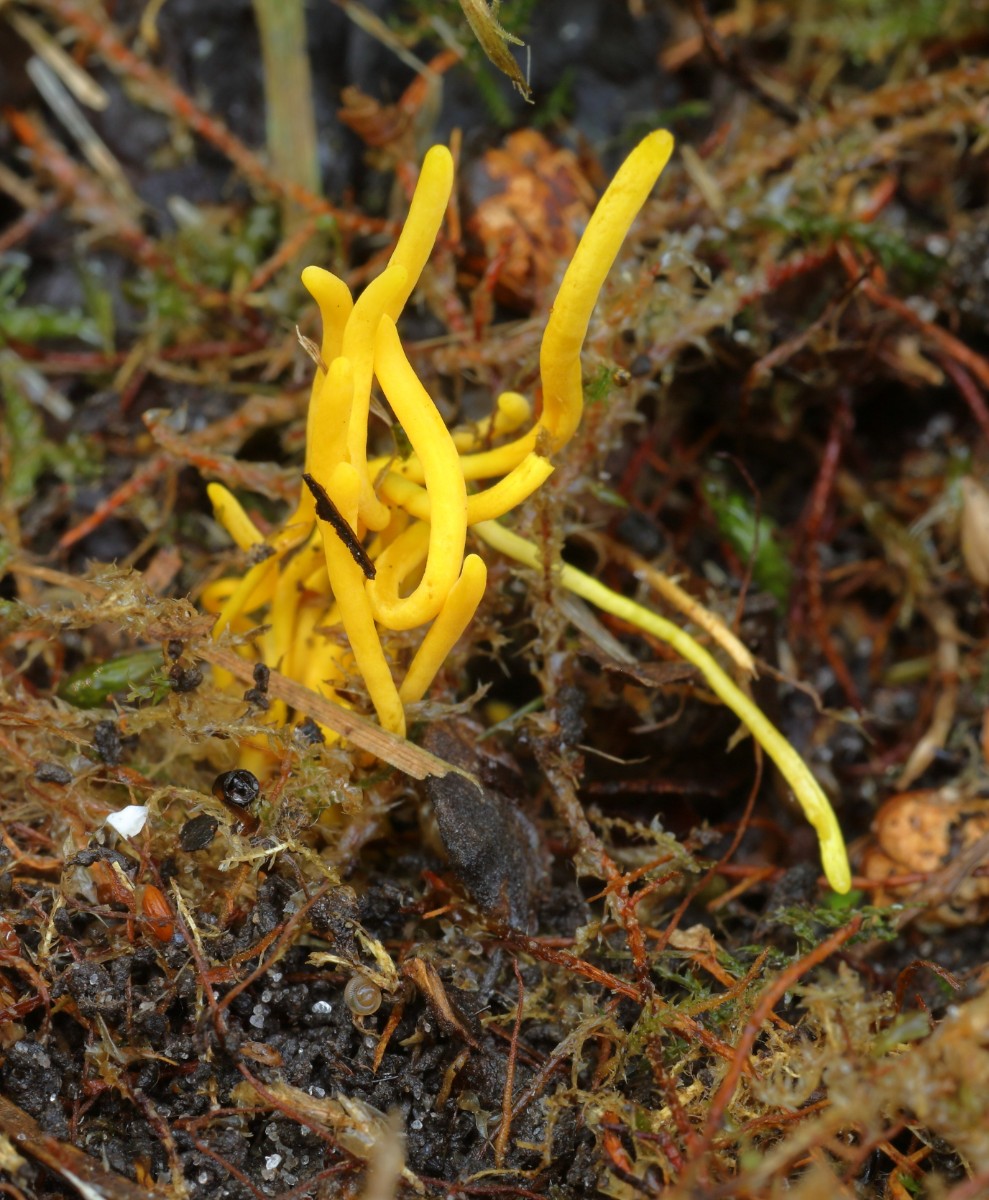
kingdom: Fungi
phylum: Basidiomycota
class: Agaricomycetes
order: Agaricales
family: Clavariaceae
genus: Clavulinopsis
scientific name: Clavulinopsis
